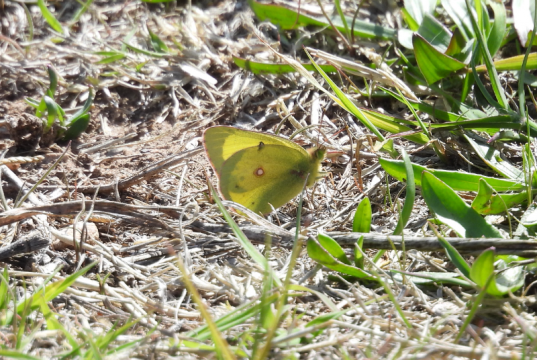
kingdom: Animalia
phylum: Arthropoda
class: Insecta
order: Lepidoptera
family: Pieridae
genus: Colias
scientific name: Colias eurytheme
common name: Orange Sulphur
